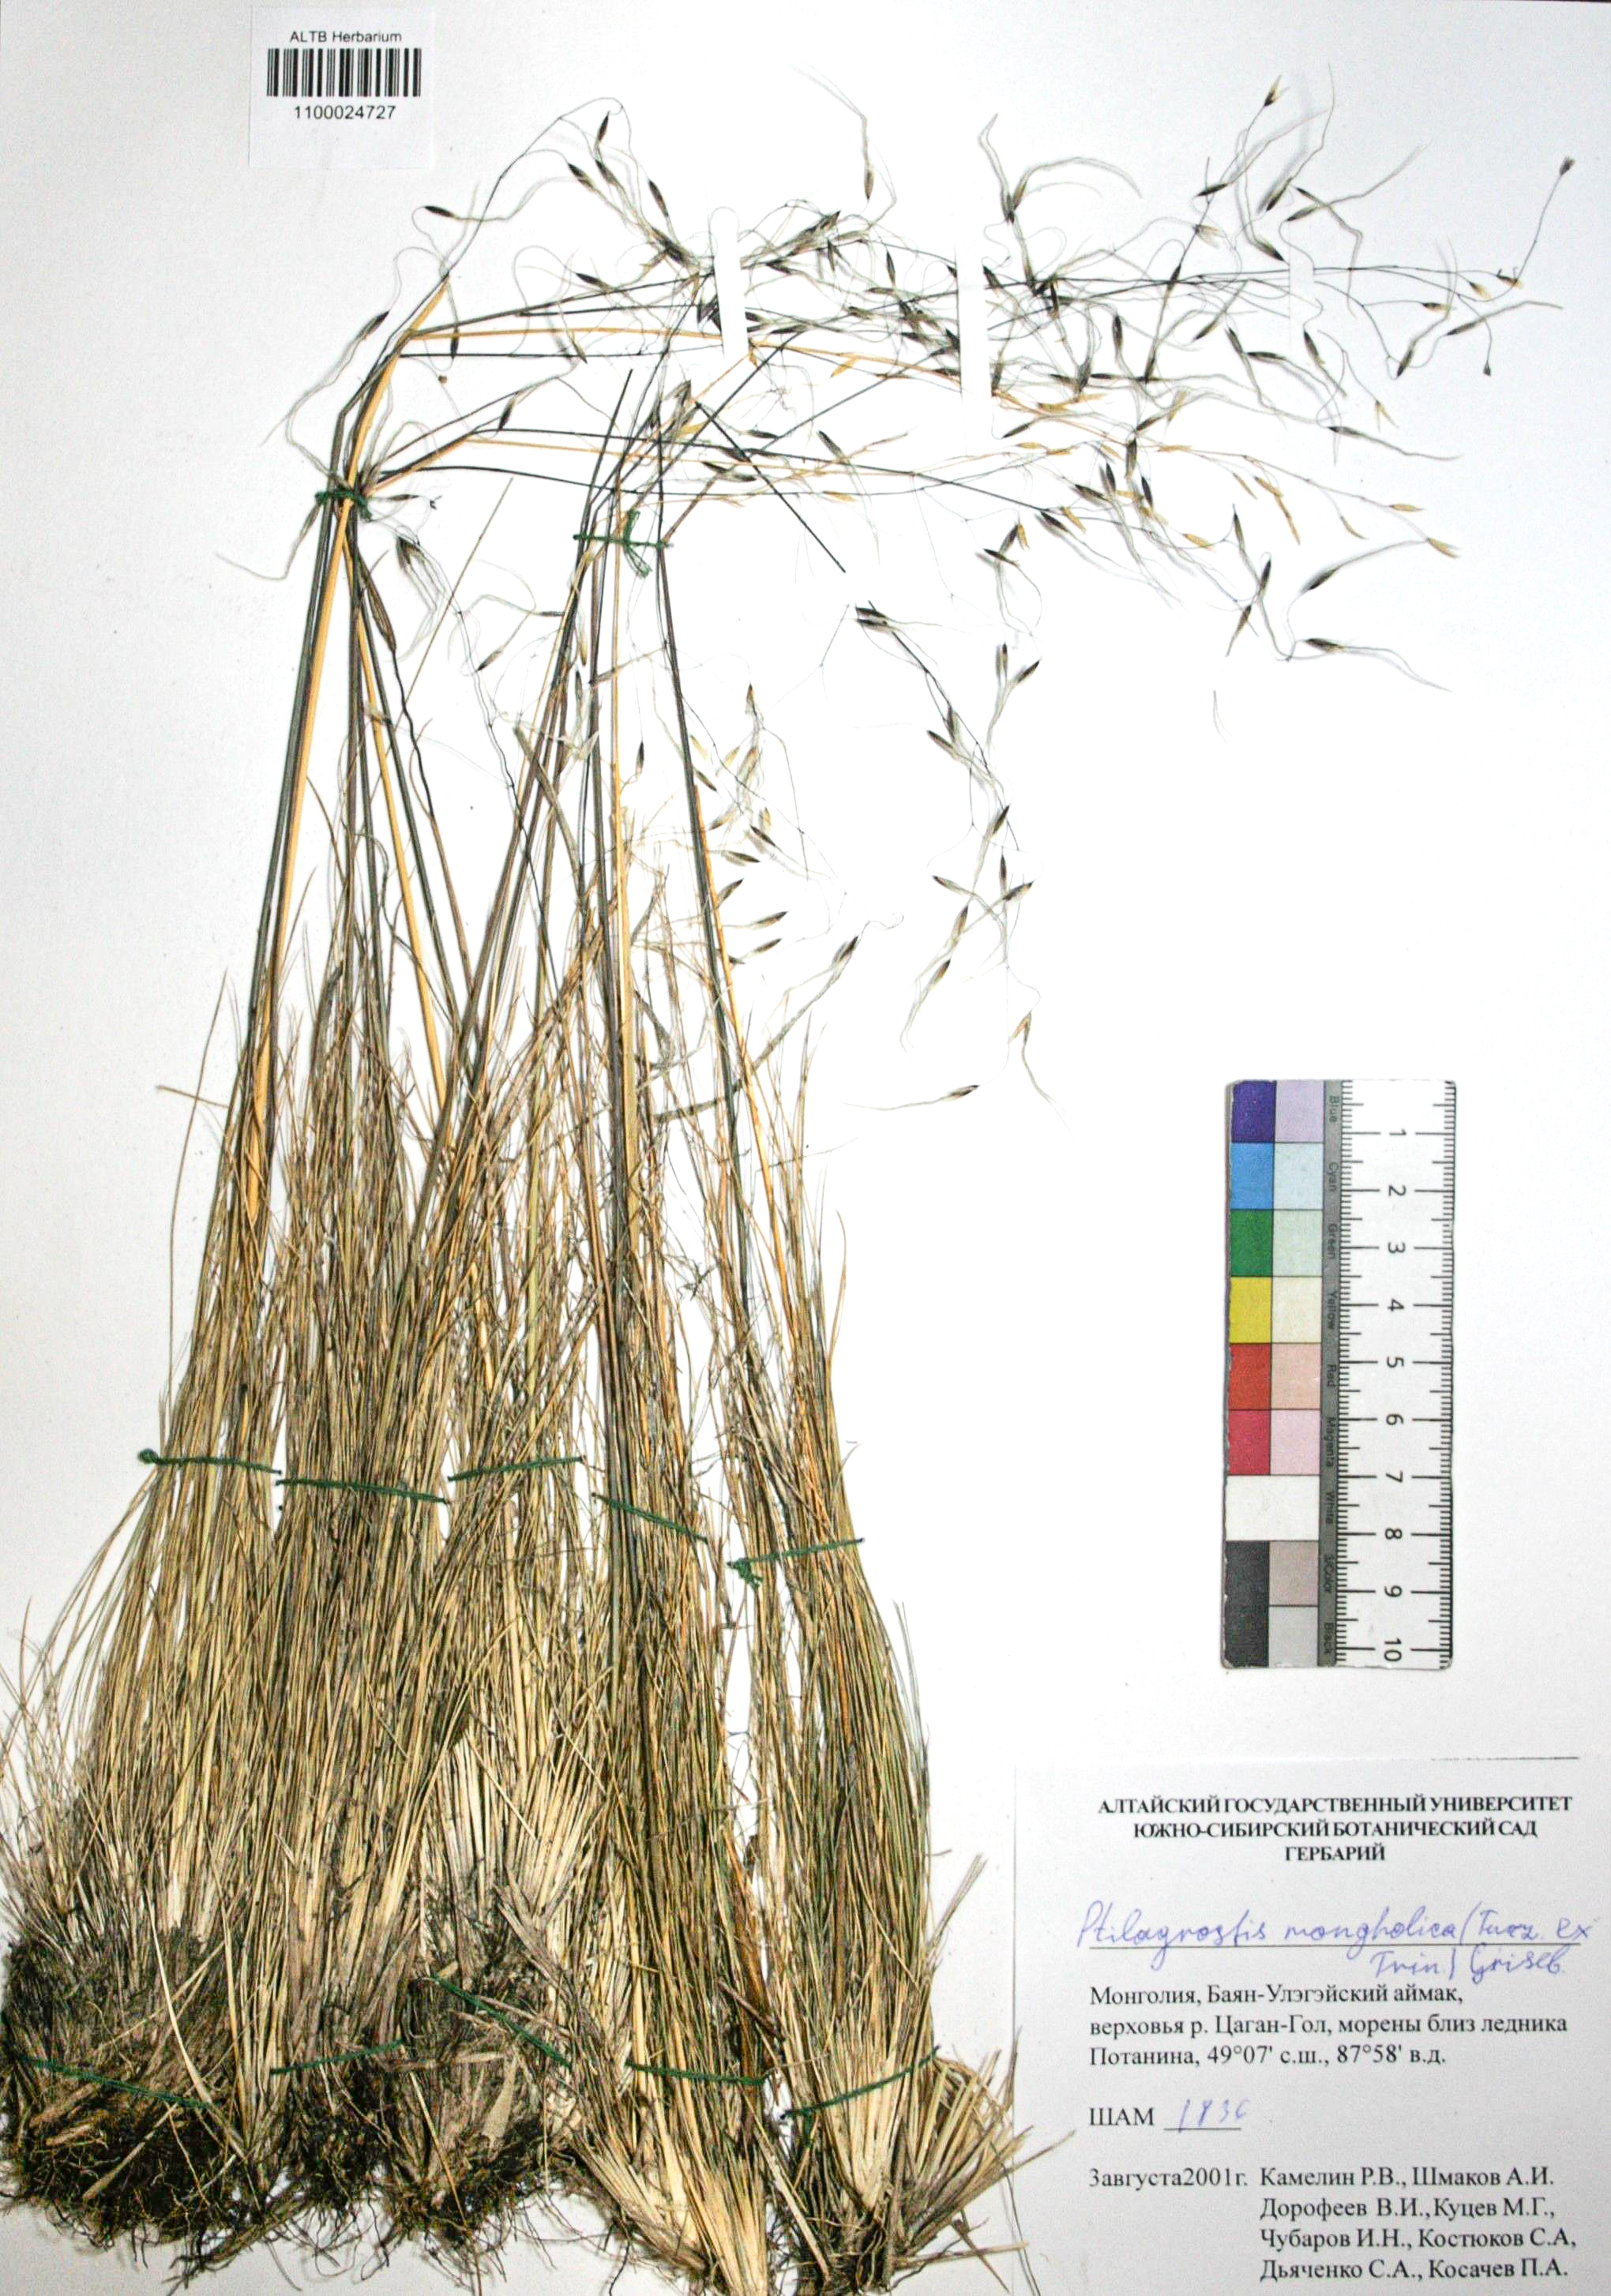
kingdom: Plantae
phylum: Tracheophyta
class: Liliopsida
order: Poales
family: Poaceae
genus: Ptilagrostis
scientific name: Ptilagrostis mongholica
